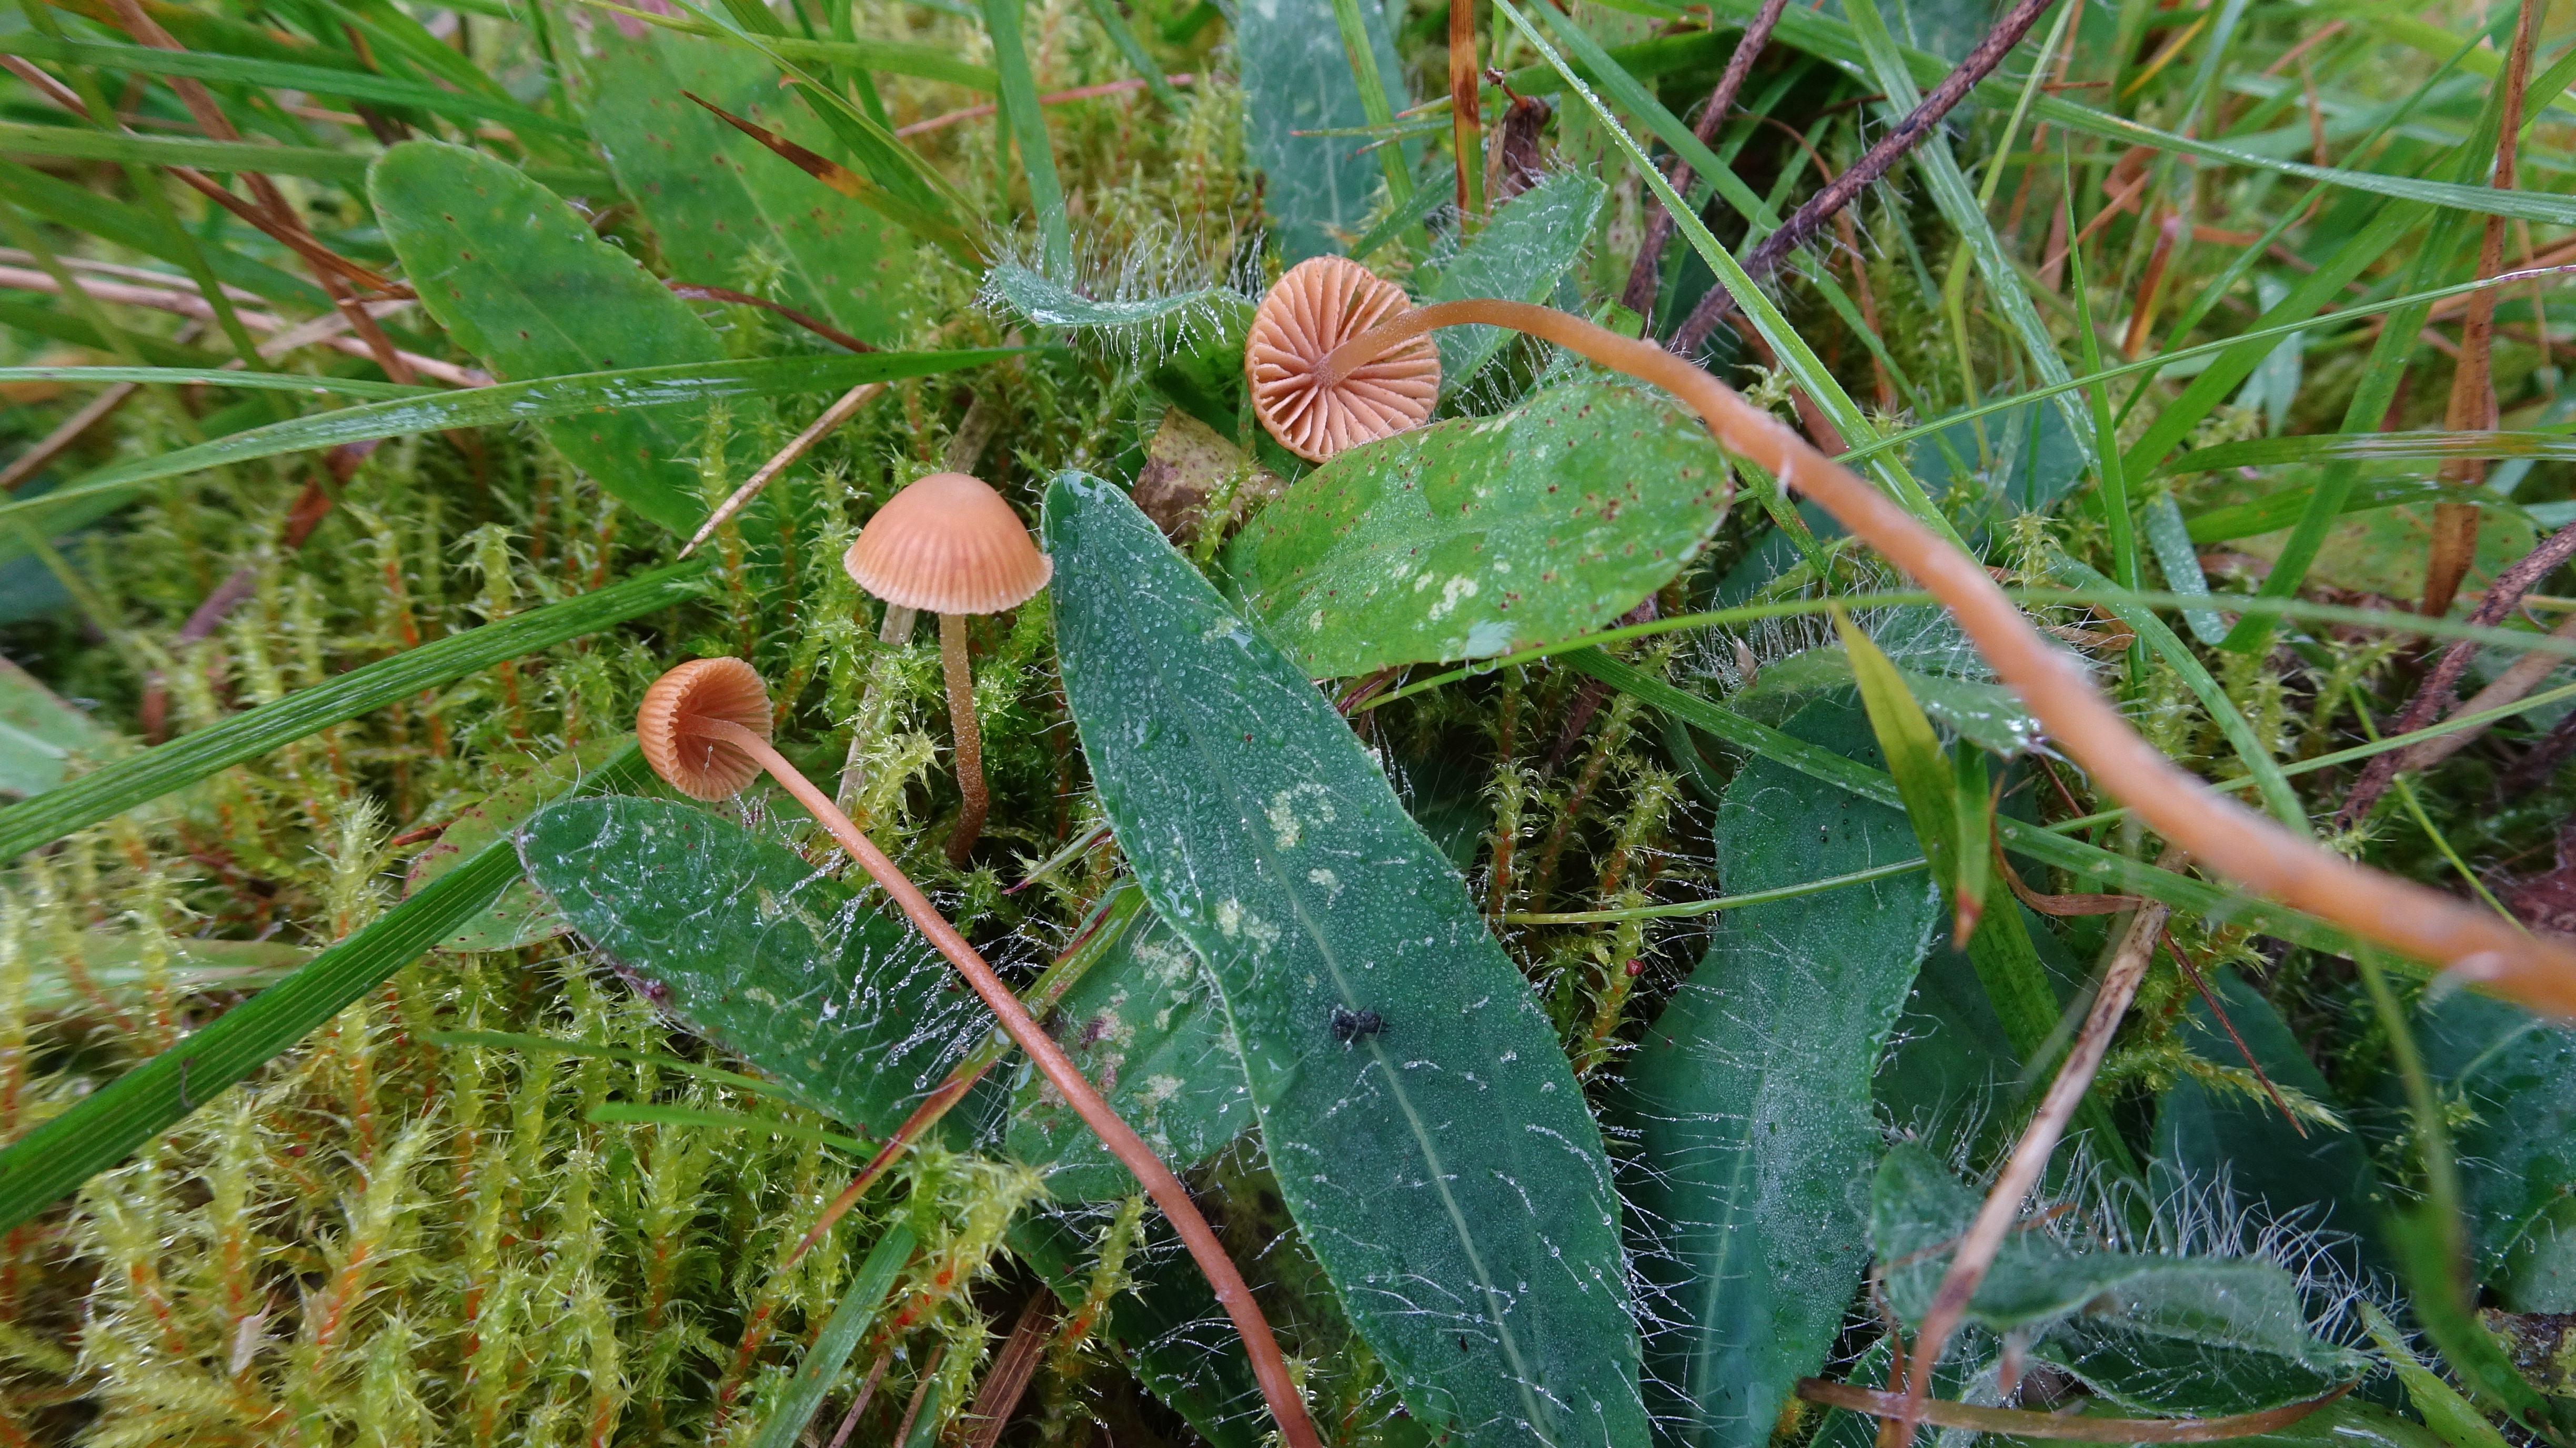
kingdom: Fungi
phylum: Basidiomycota
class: Agaricomycetes
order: Agaricales
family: Hymenogastraceae
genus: Galerina
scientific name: Galerina
